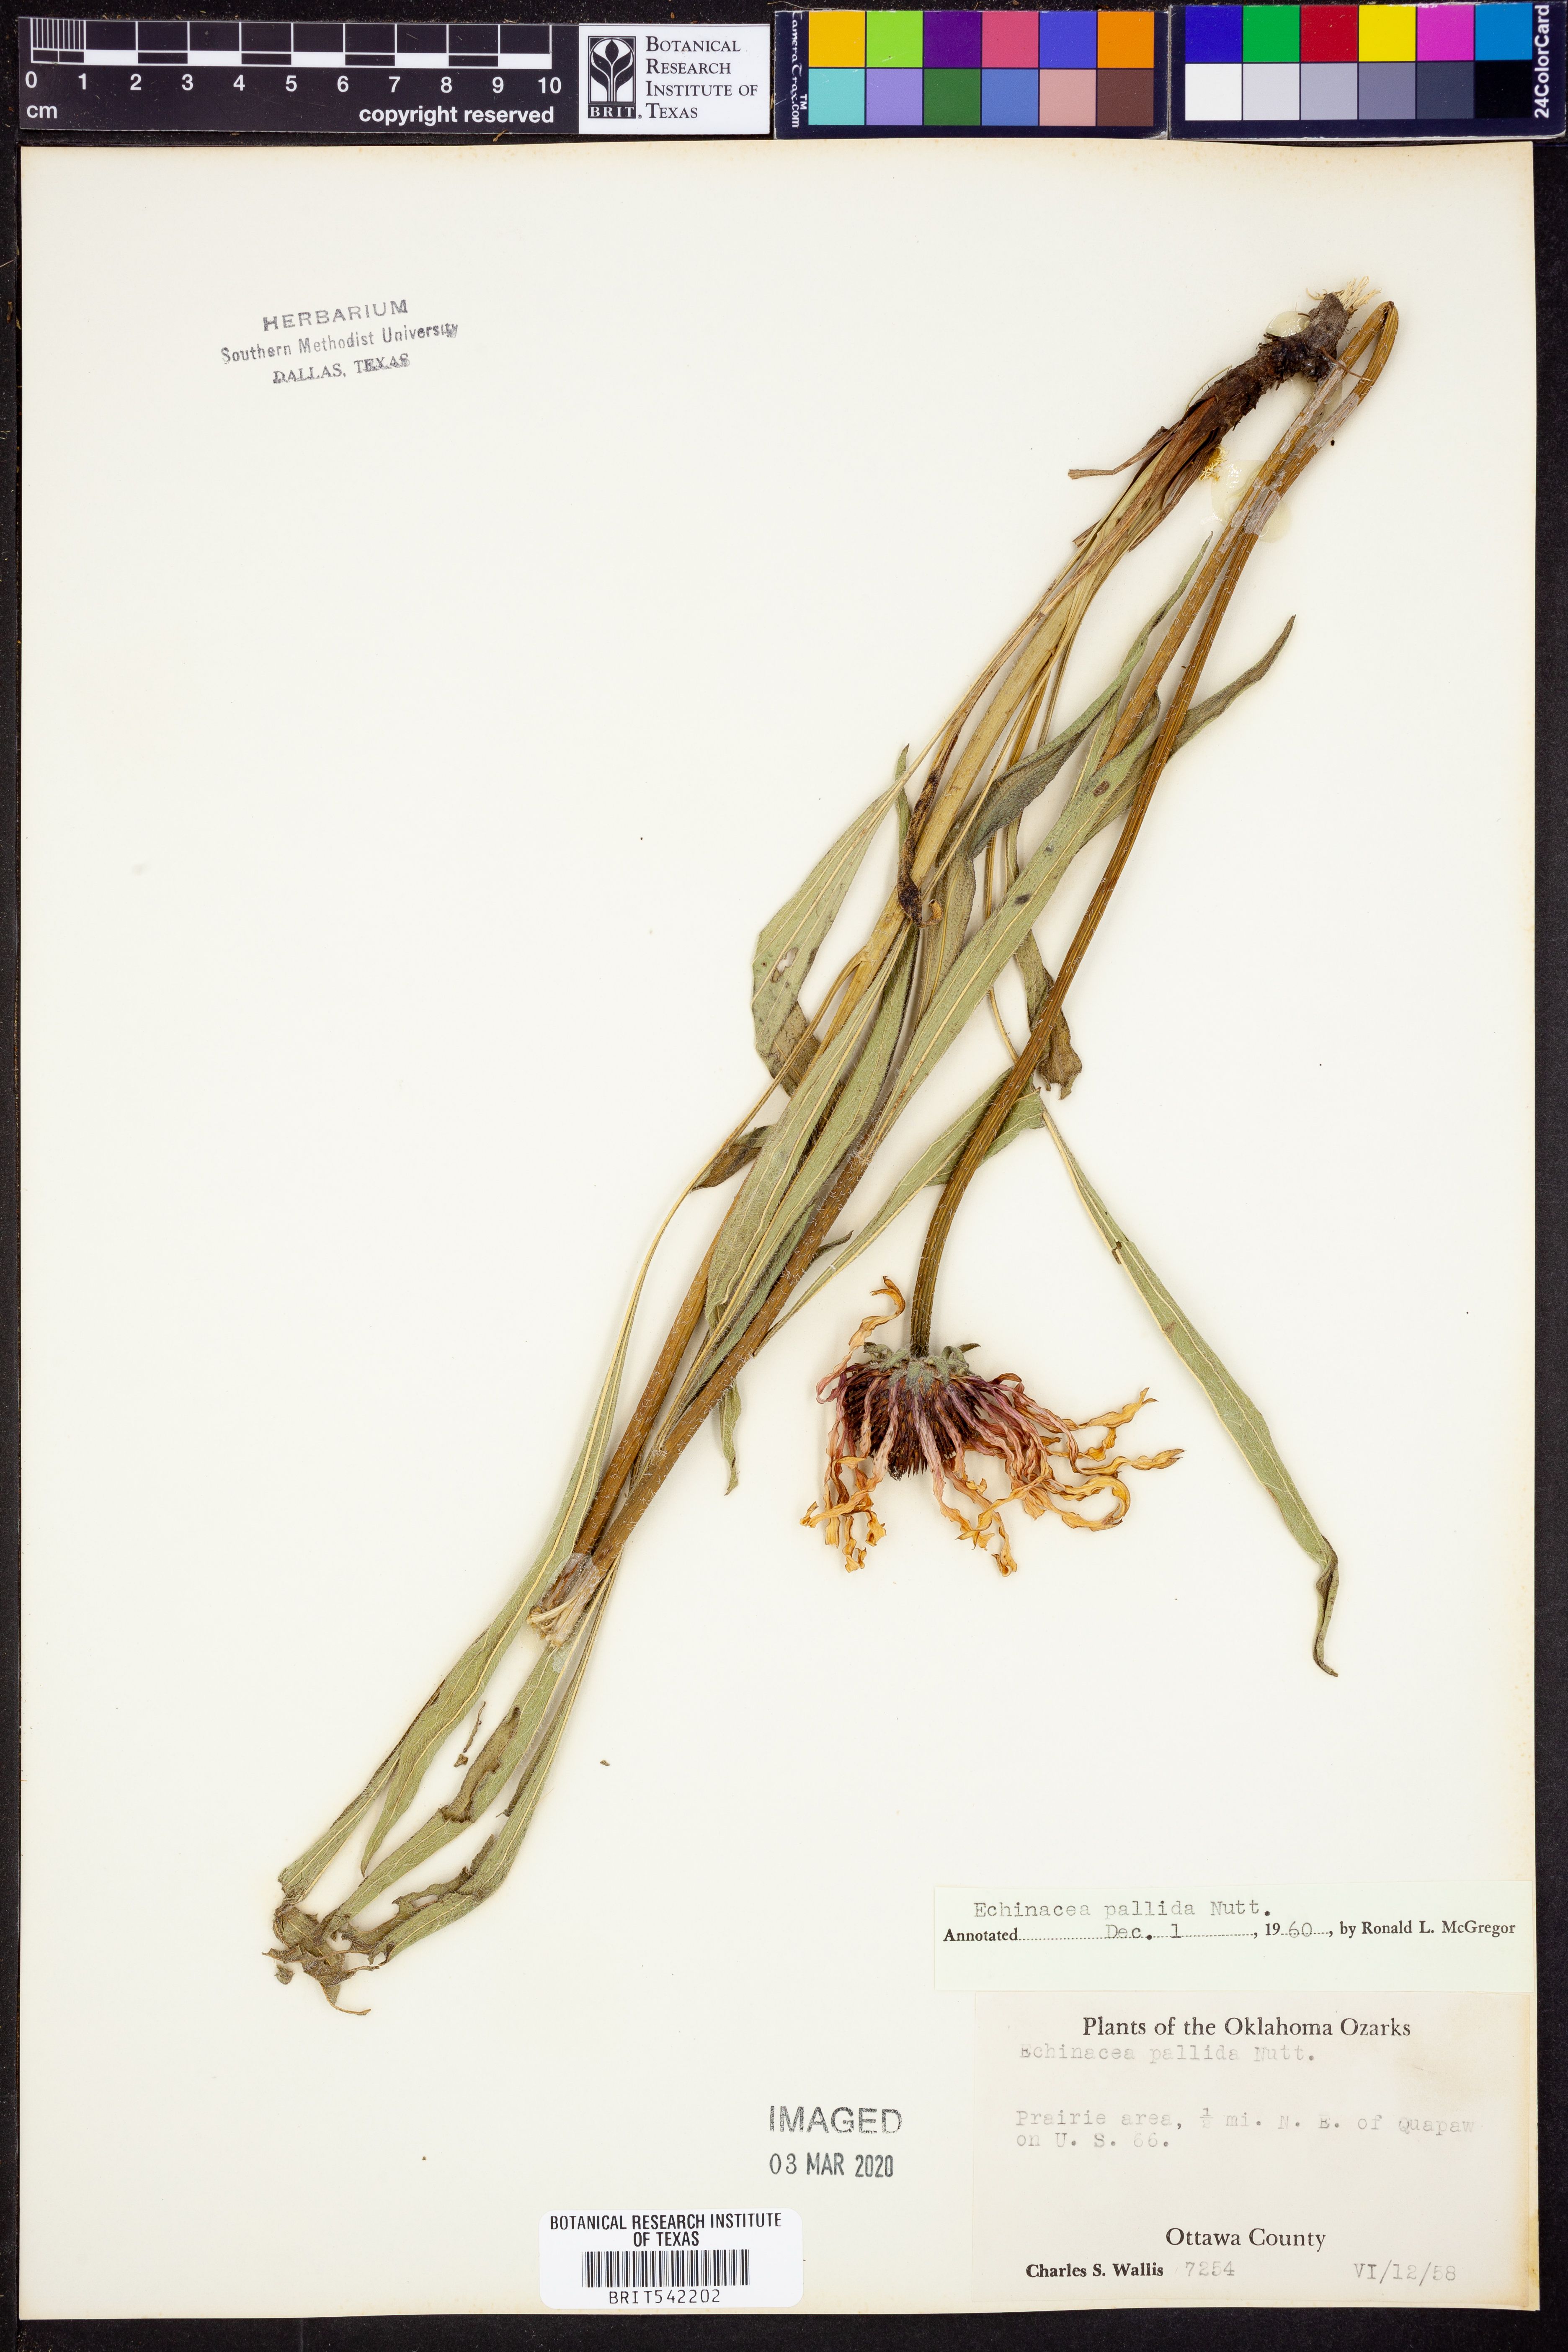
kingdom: Plantae
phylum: Tracheophyta
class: Magnoliopsida
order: Asterales
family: Asteraceae
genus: Echinacea
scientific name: Echinacea pallida
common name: Pale echinacea
